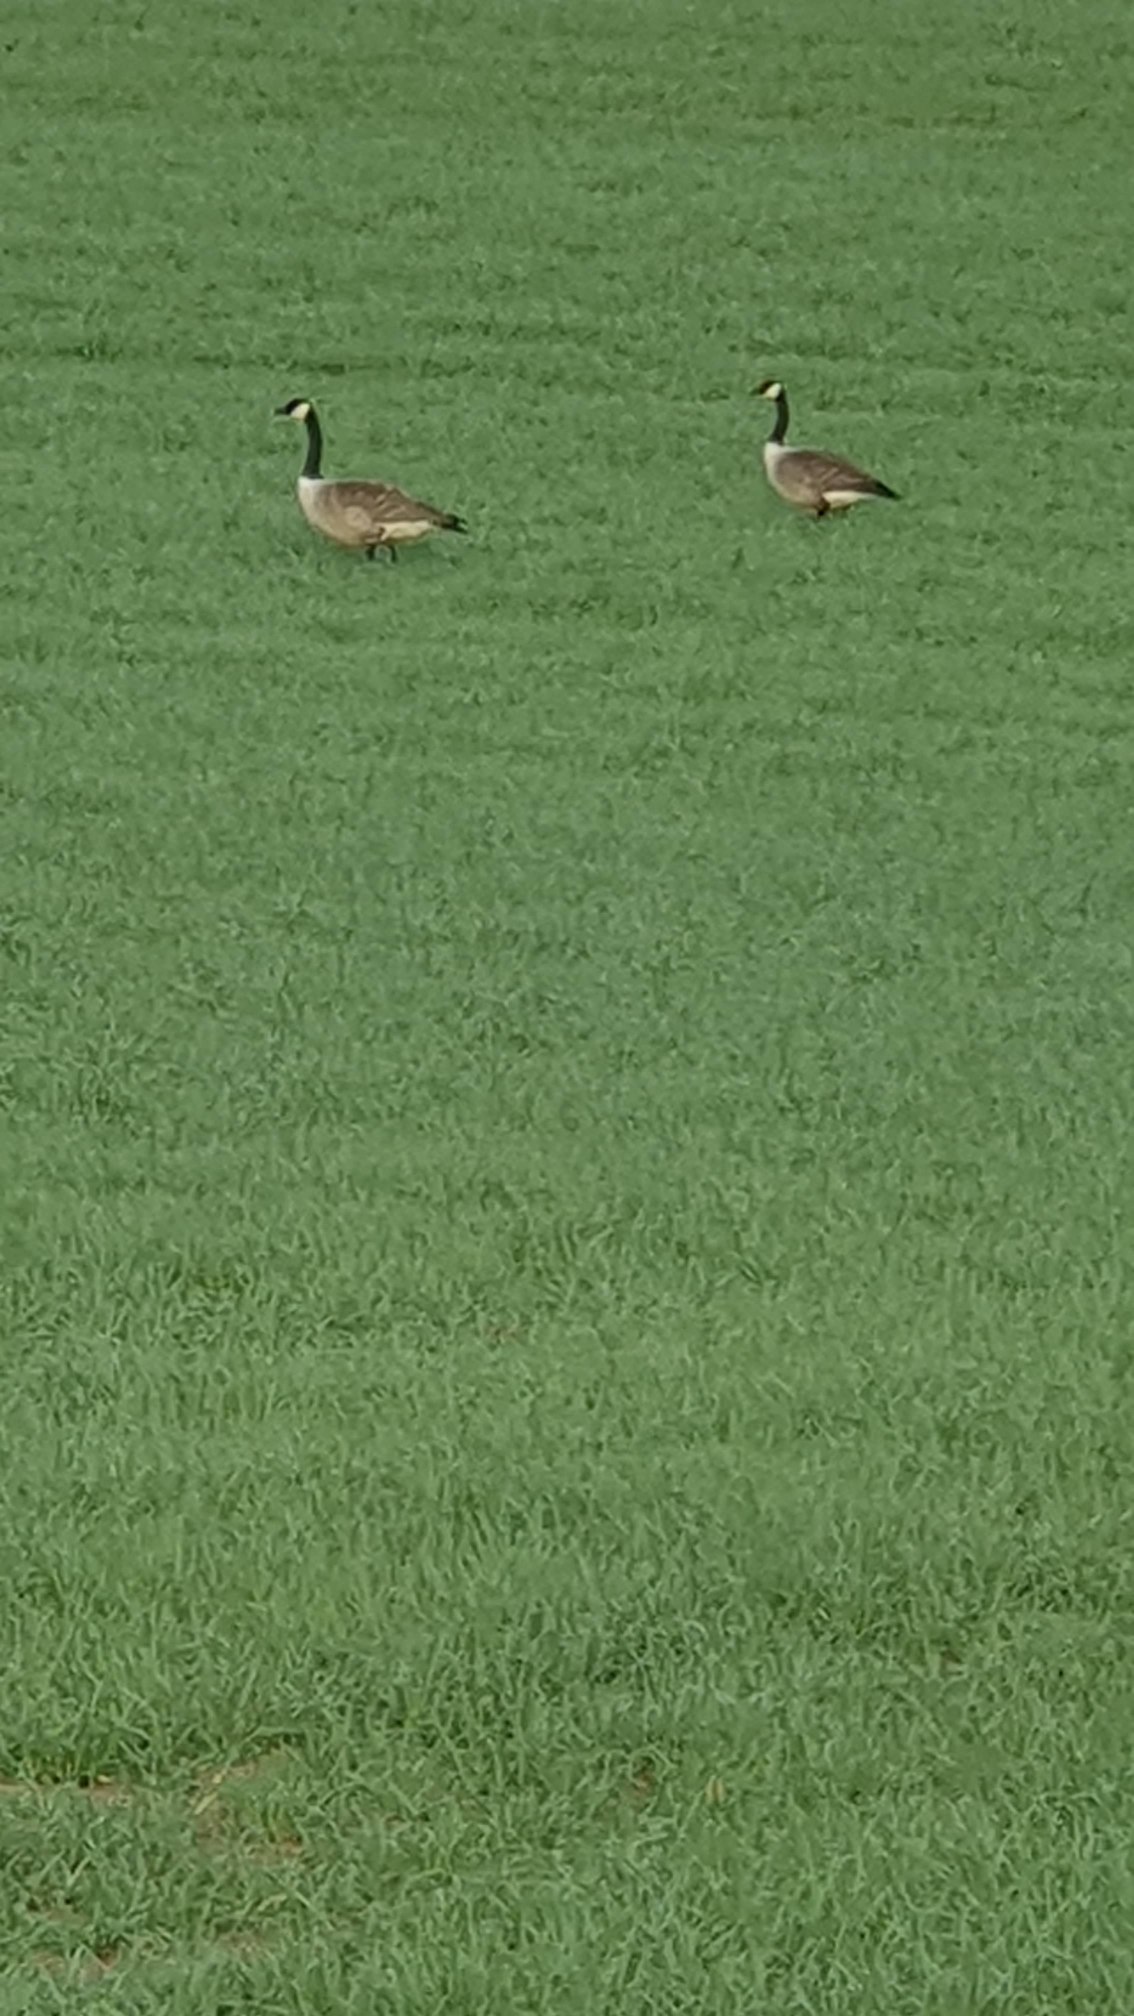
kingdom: Animalia
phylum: Chordata
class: Aves
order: Anseriformes
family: Anatidae
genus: Branta
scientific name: Branta canadensis
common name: Canadagås
